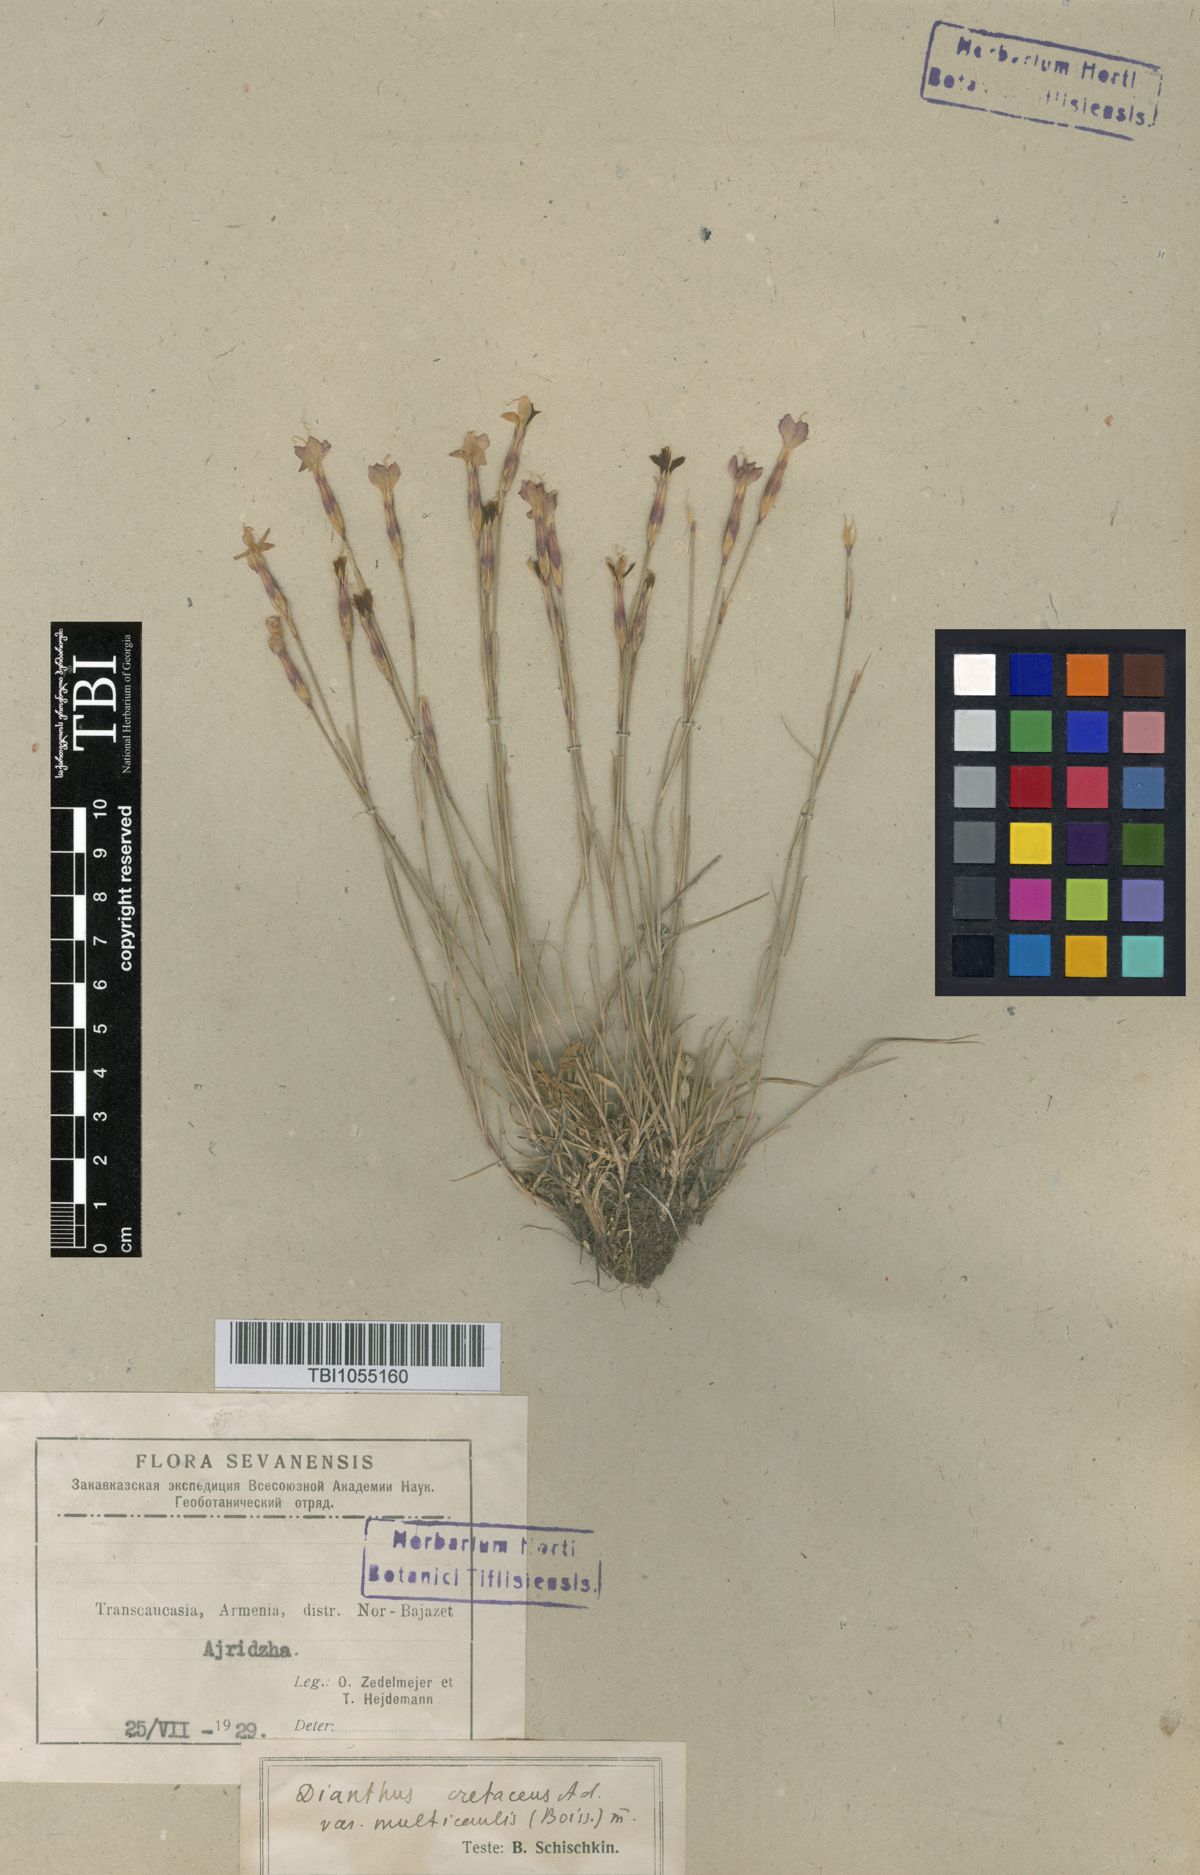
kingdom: Plantae
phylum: Tracheophyta
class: Magnoliopsida
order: Caryophyllales
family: Caryophyllaceae
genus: Dianthus
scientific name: Dianthus cretaceus
